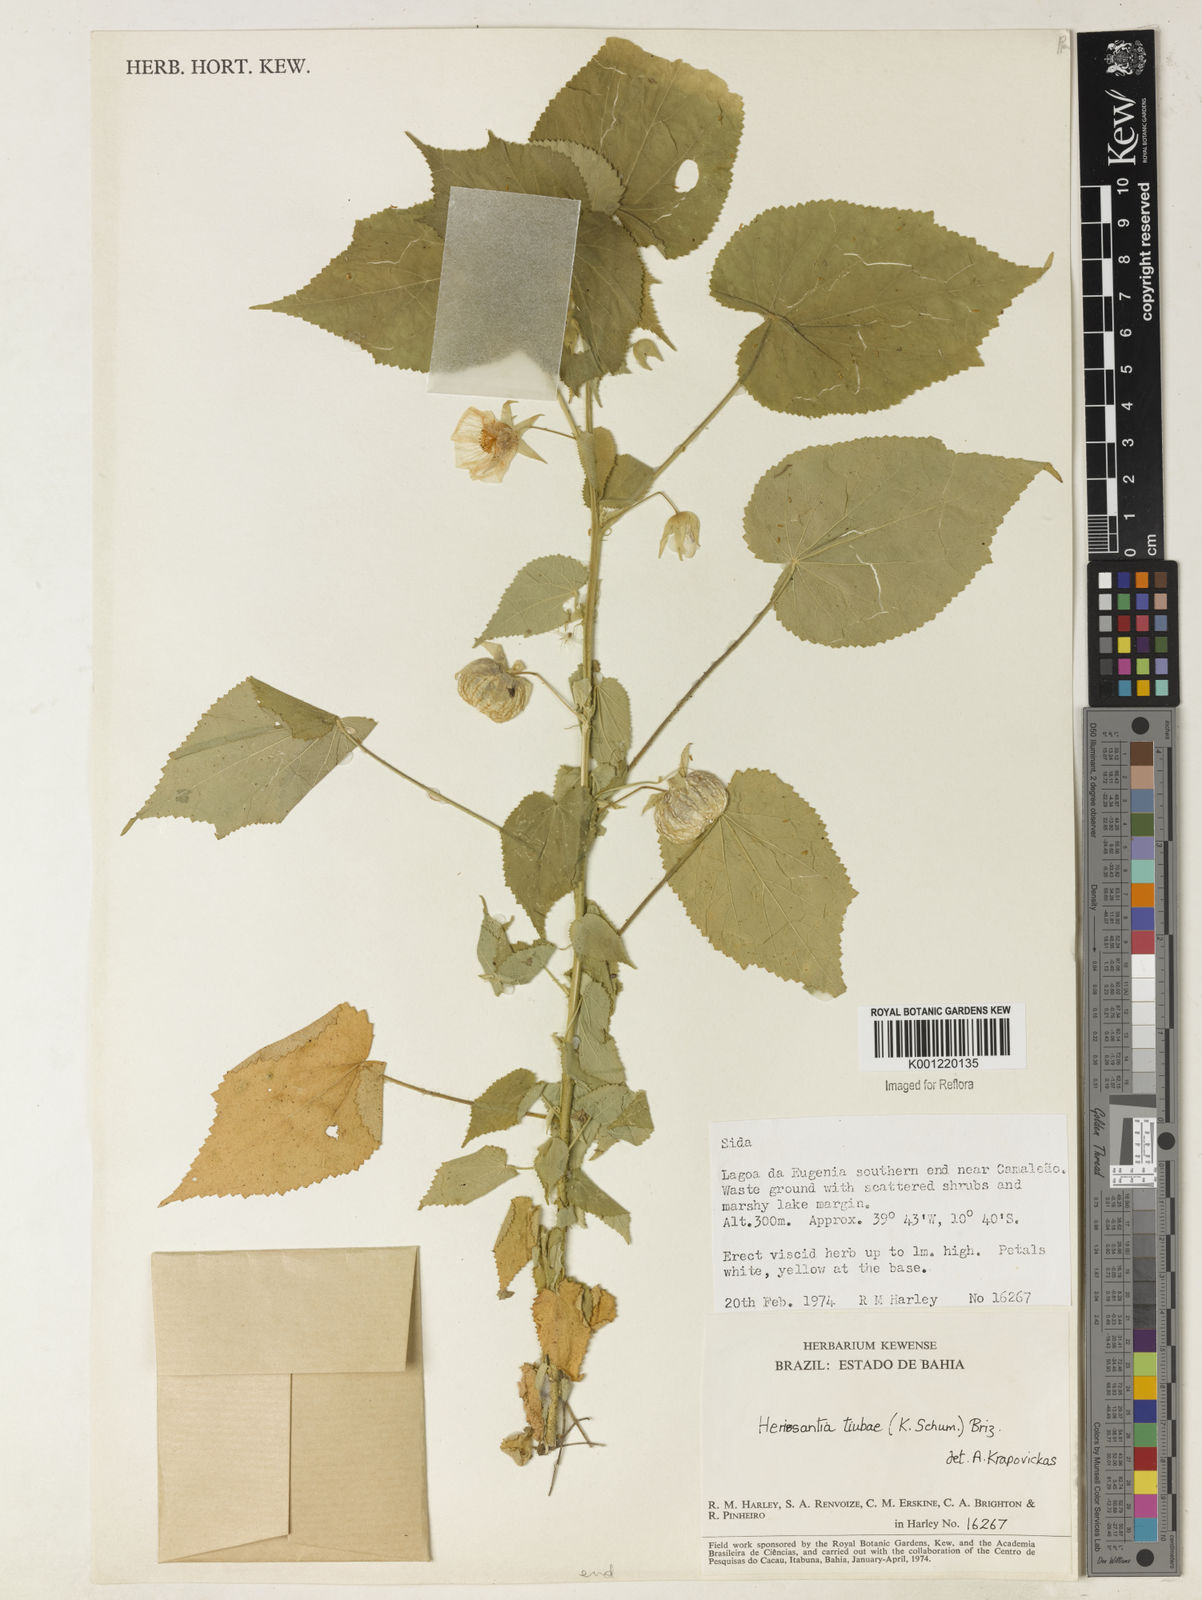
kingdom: Plantae
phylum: Tracheophyta
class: Magnoliopsida
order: Malvales
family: Malvaceae
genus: Herissantia
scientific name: Herissantia tiubae
